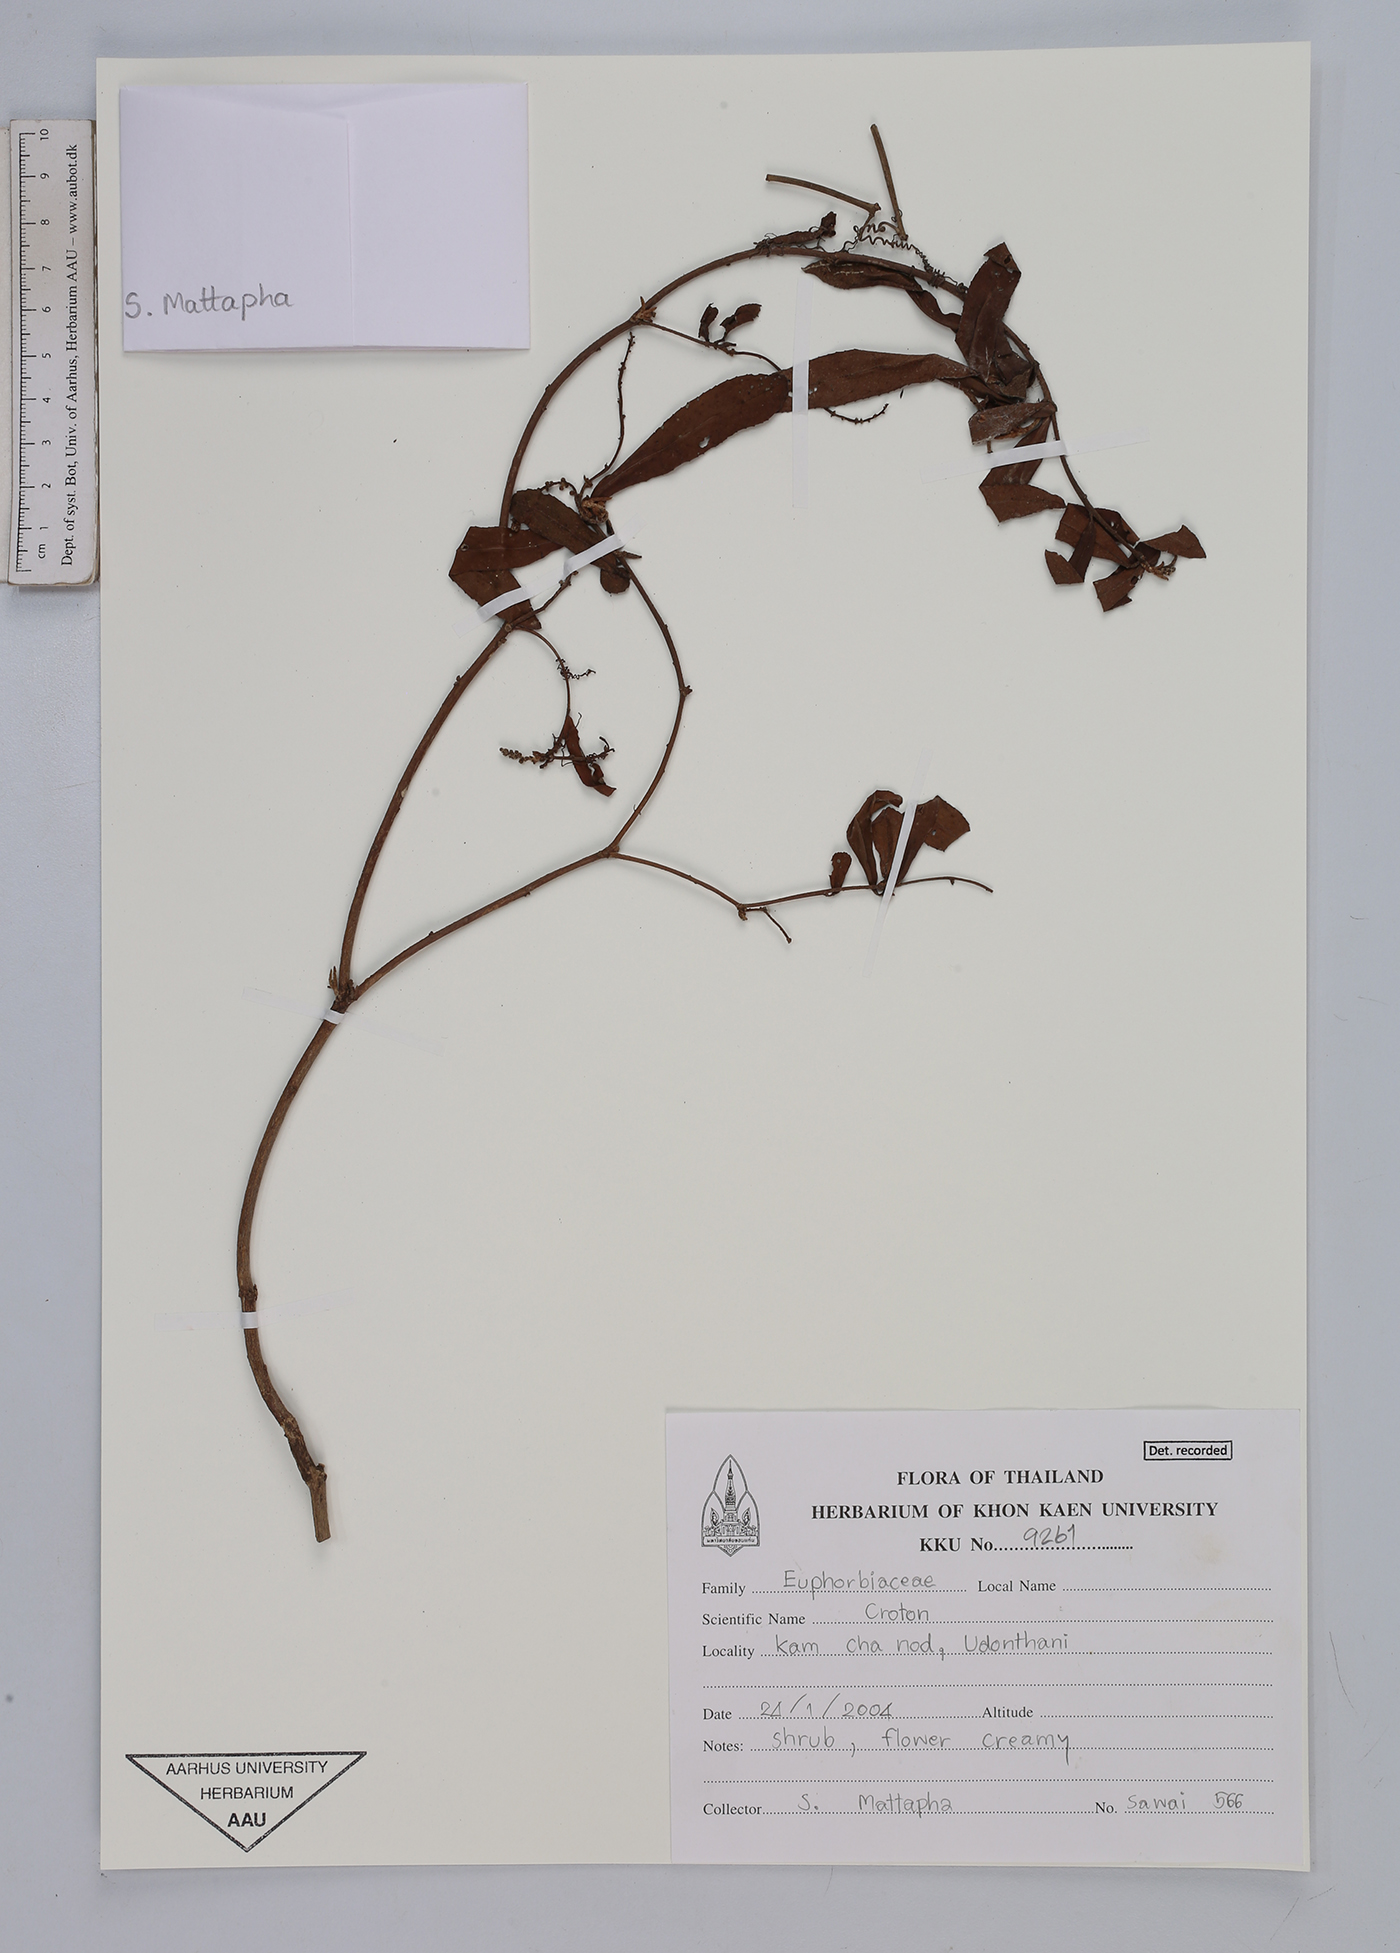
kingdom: Plantae
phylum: Tracheophyta
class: Magnoliopsida
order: Malpighiales
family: Euphorbiaceae
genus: Croton
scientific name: Croton
